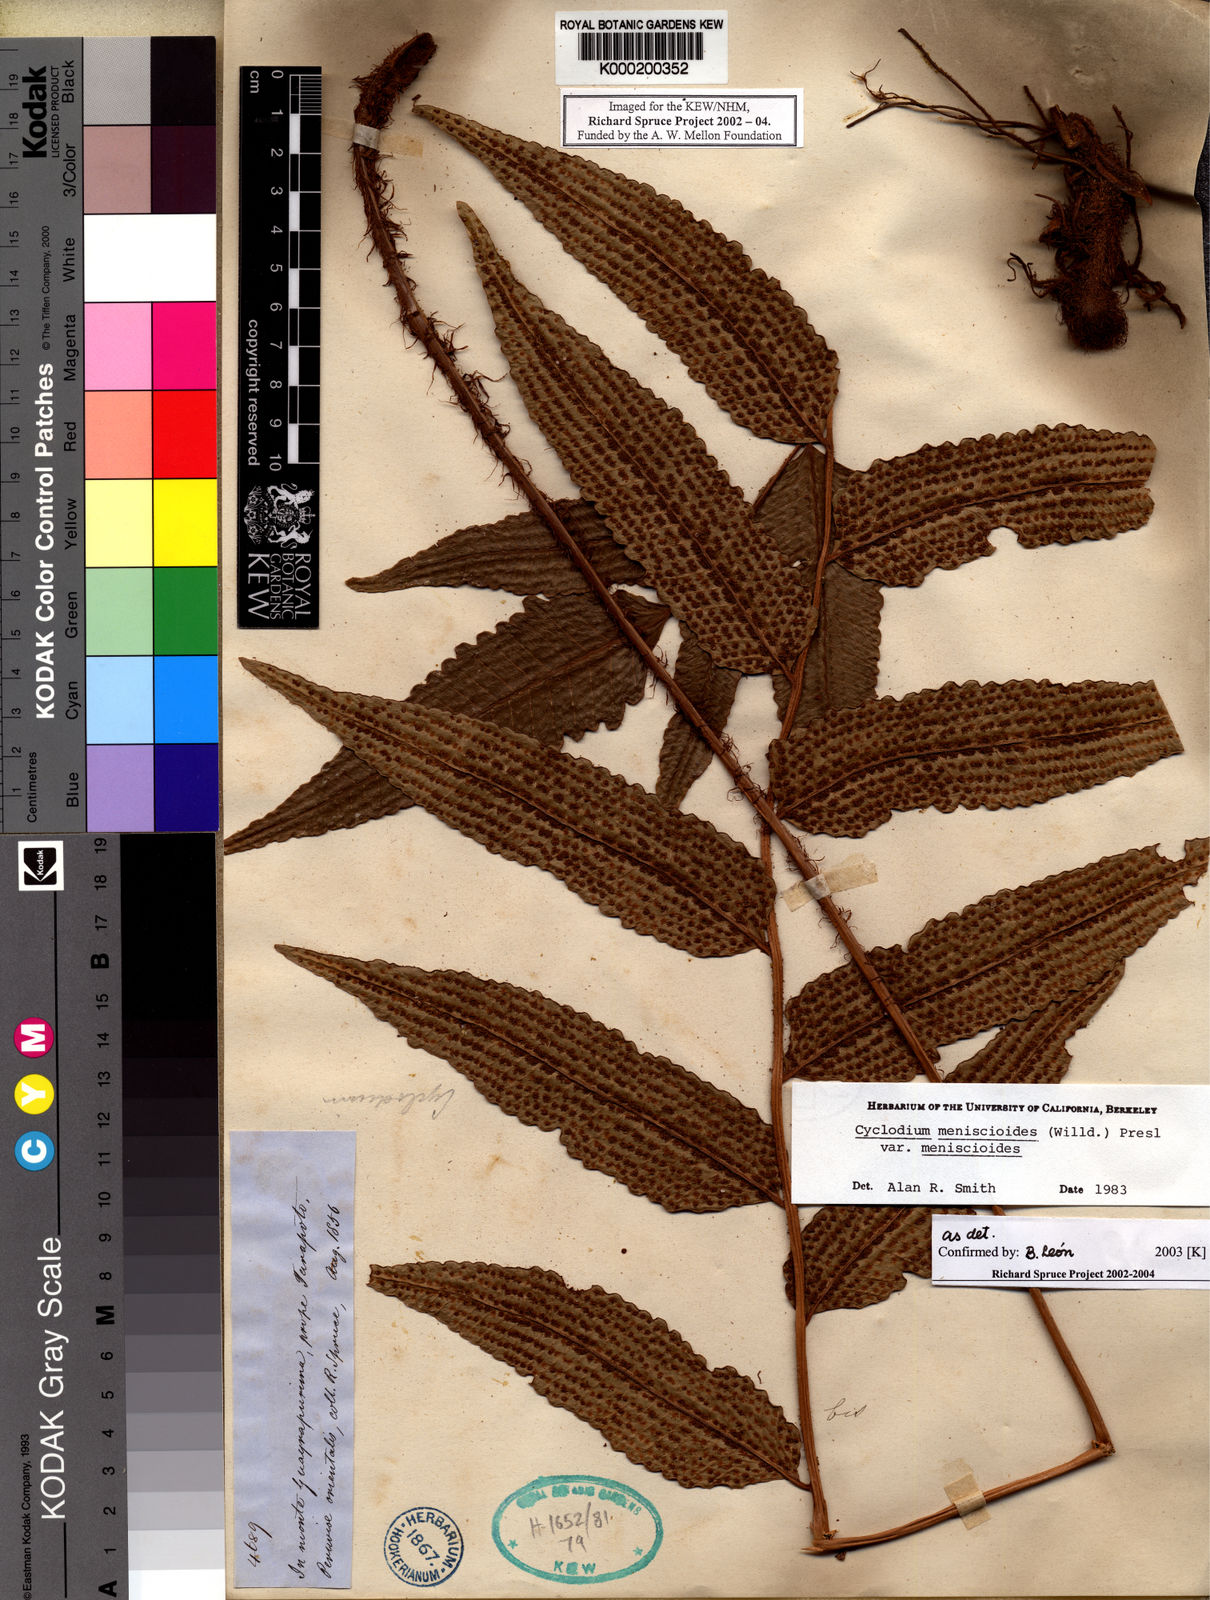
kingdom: Plantae
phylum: Tracheophyta
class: Polypodiopsida
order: Polypodiales
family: Dryopteridaceae
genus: Cyclodium
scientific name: Cyclodium meniscioides
